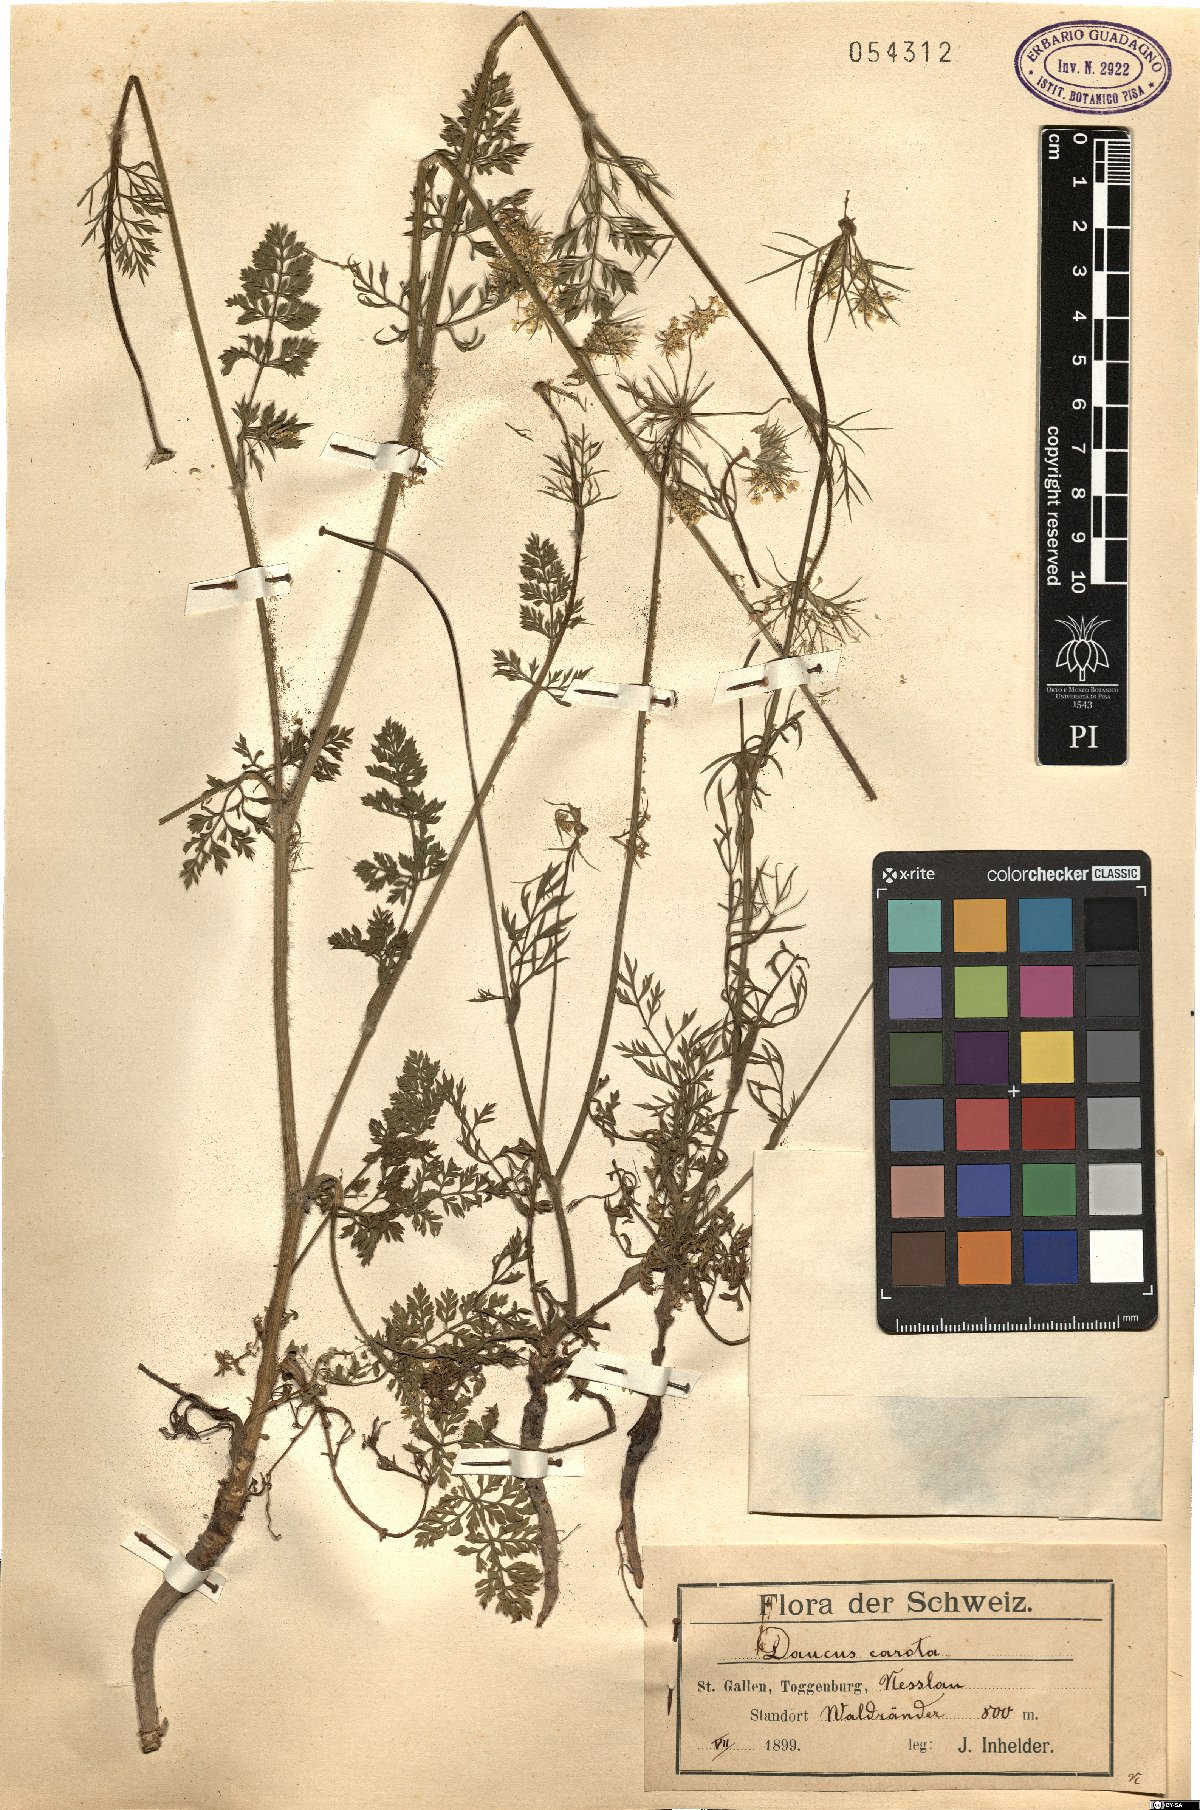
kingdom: Plantae
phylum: Tracheophyta
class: Magnoliopsida
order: Apiales
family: Apiaceae
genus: Daucus
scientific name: Daucus carota
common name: Wild carrot
